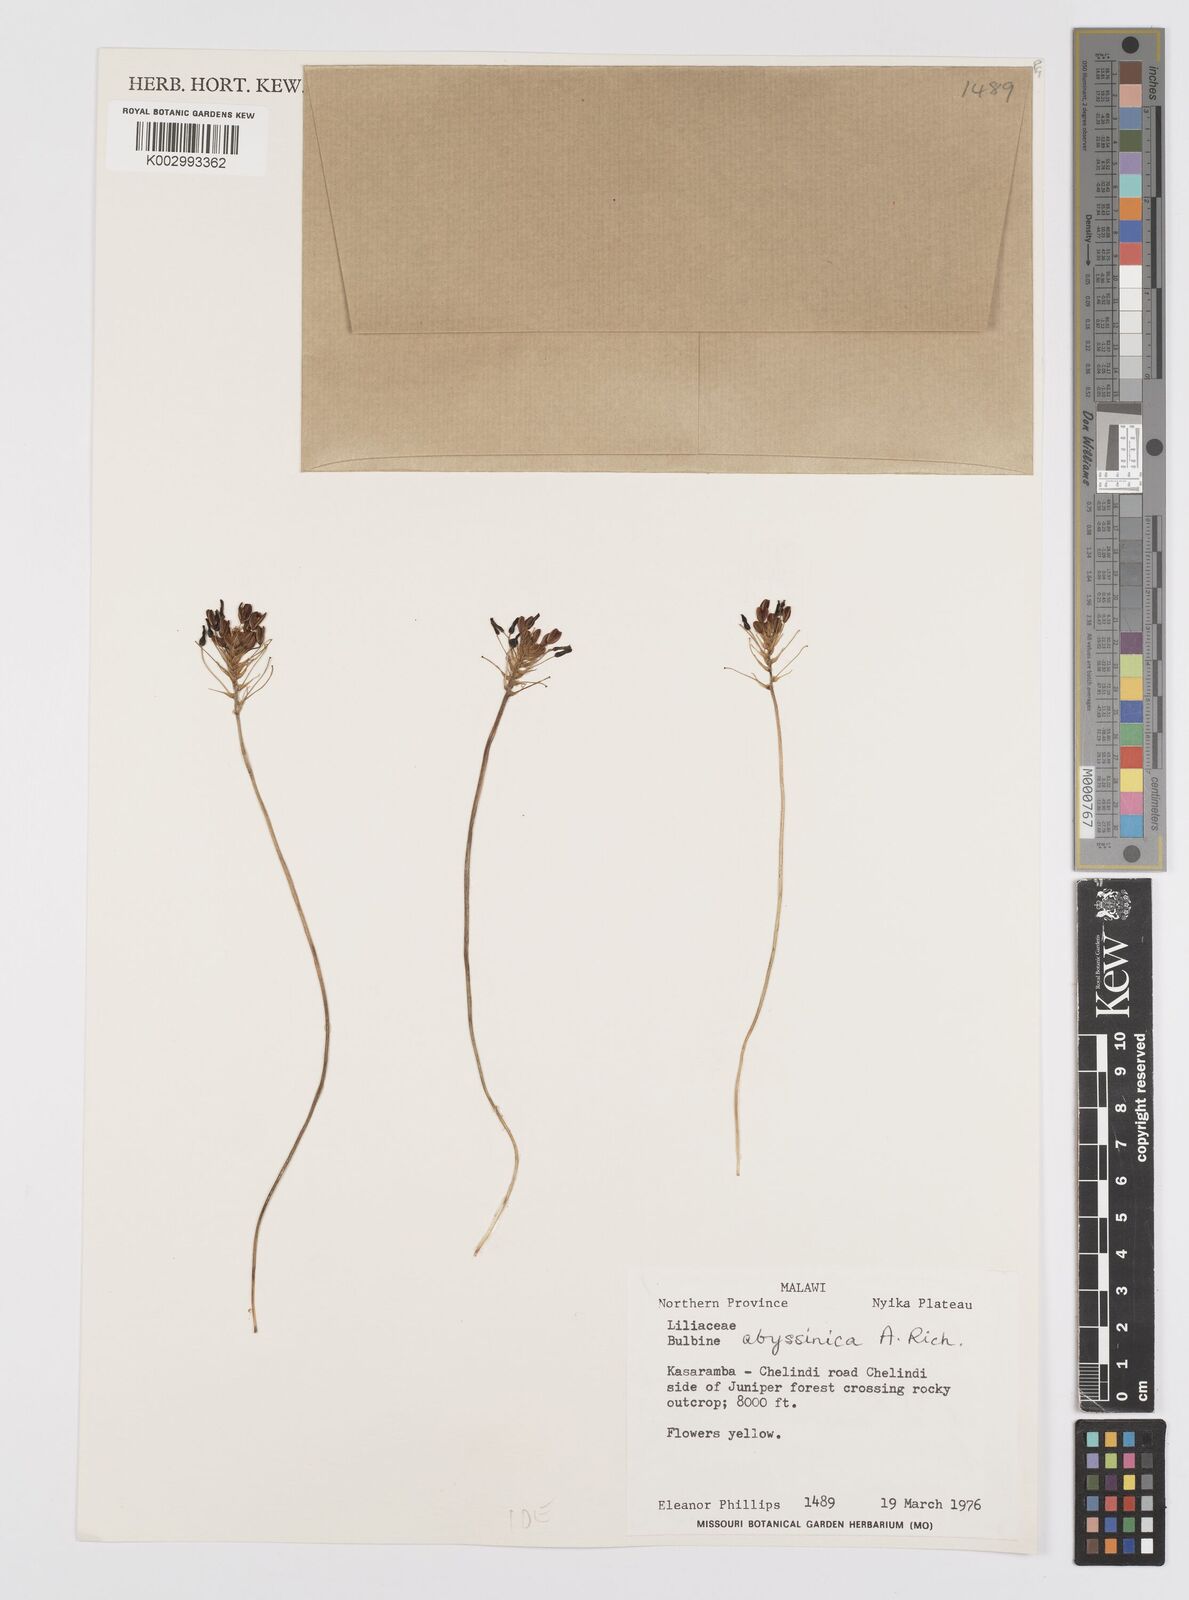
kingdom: Plantae
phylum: Tracheophyta
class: Liliopsida
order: Asparagales
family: Asphodelaceae
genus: Bulbine
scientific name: Bulbine abyssinica
